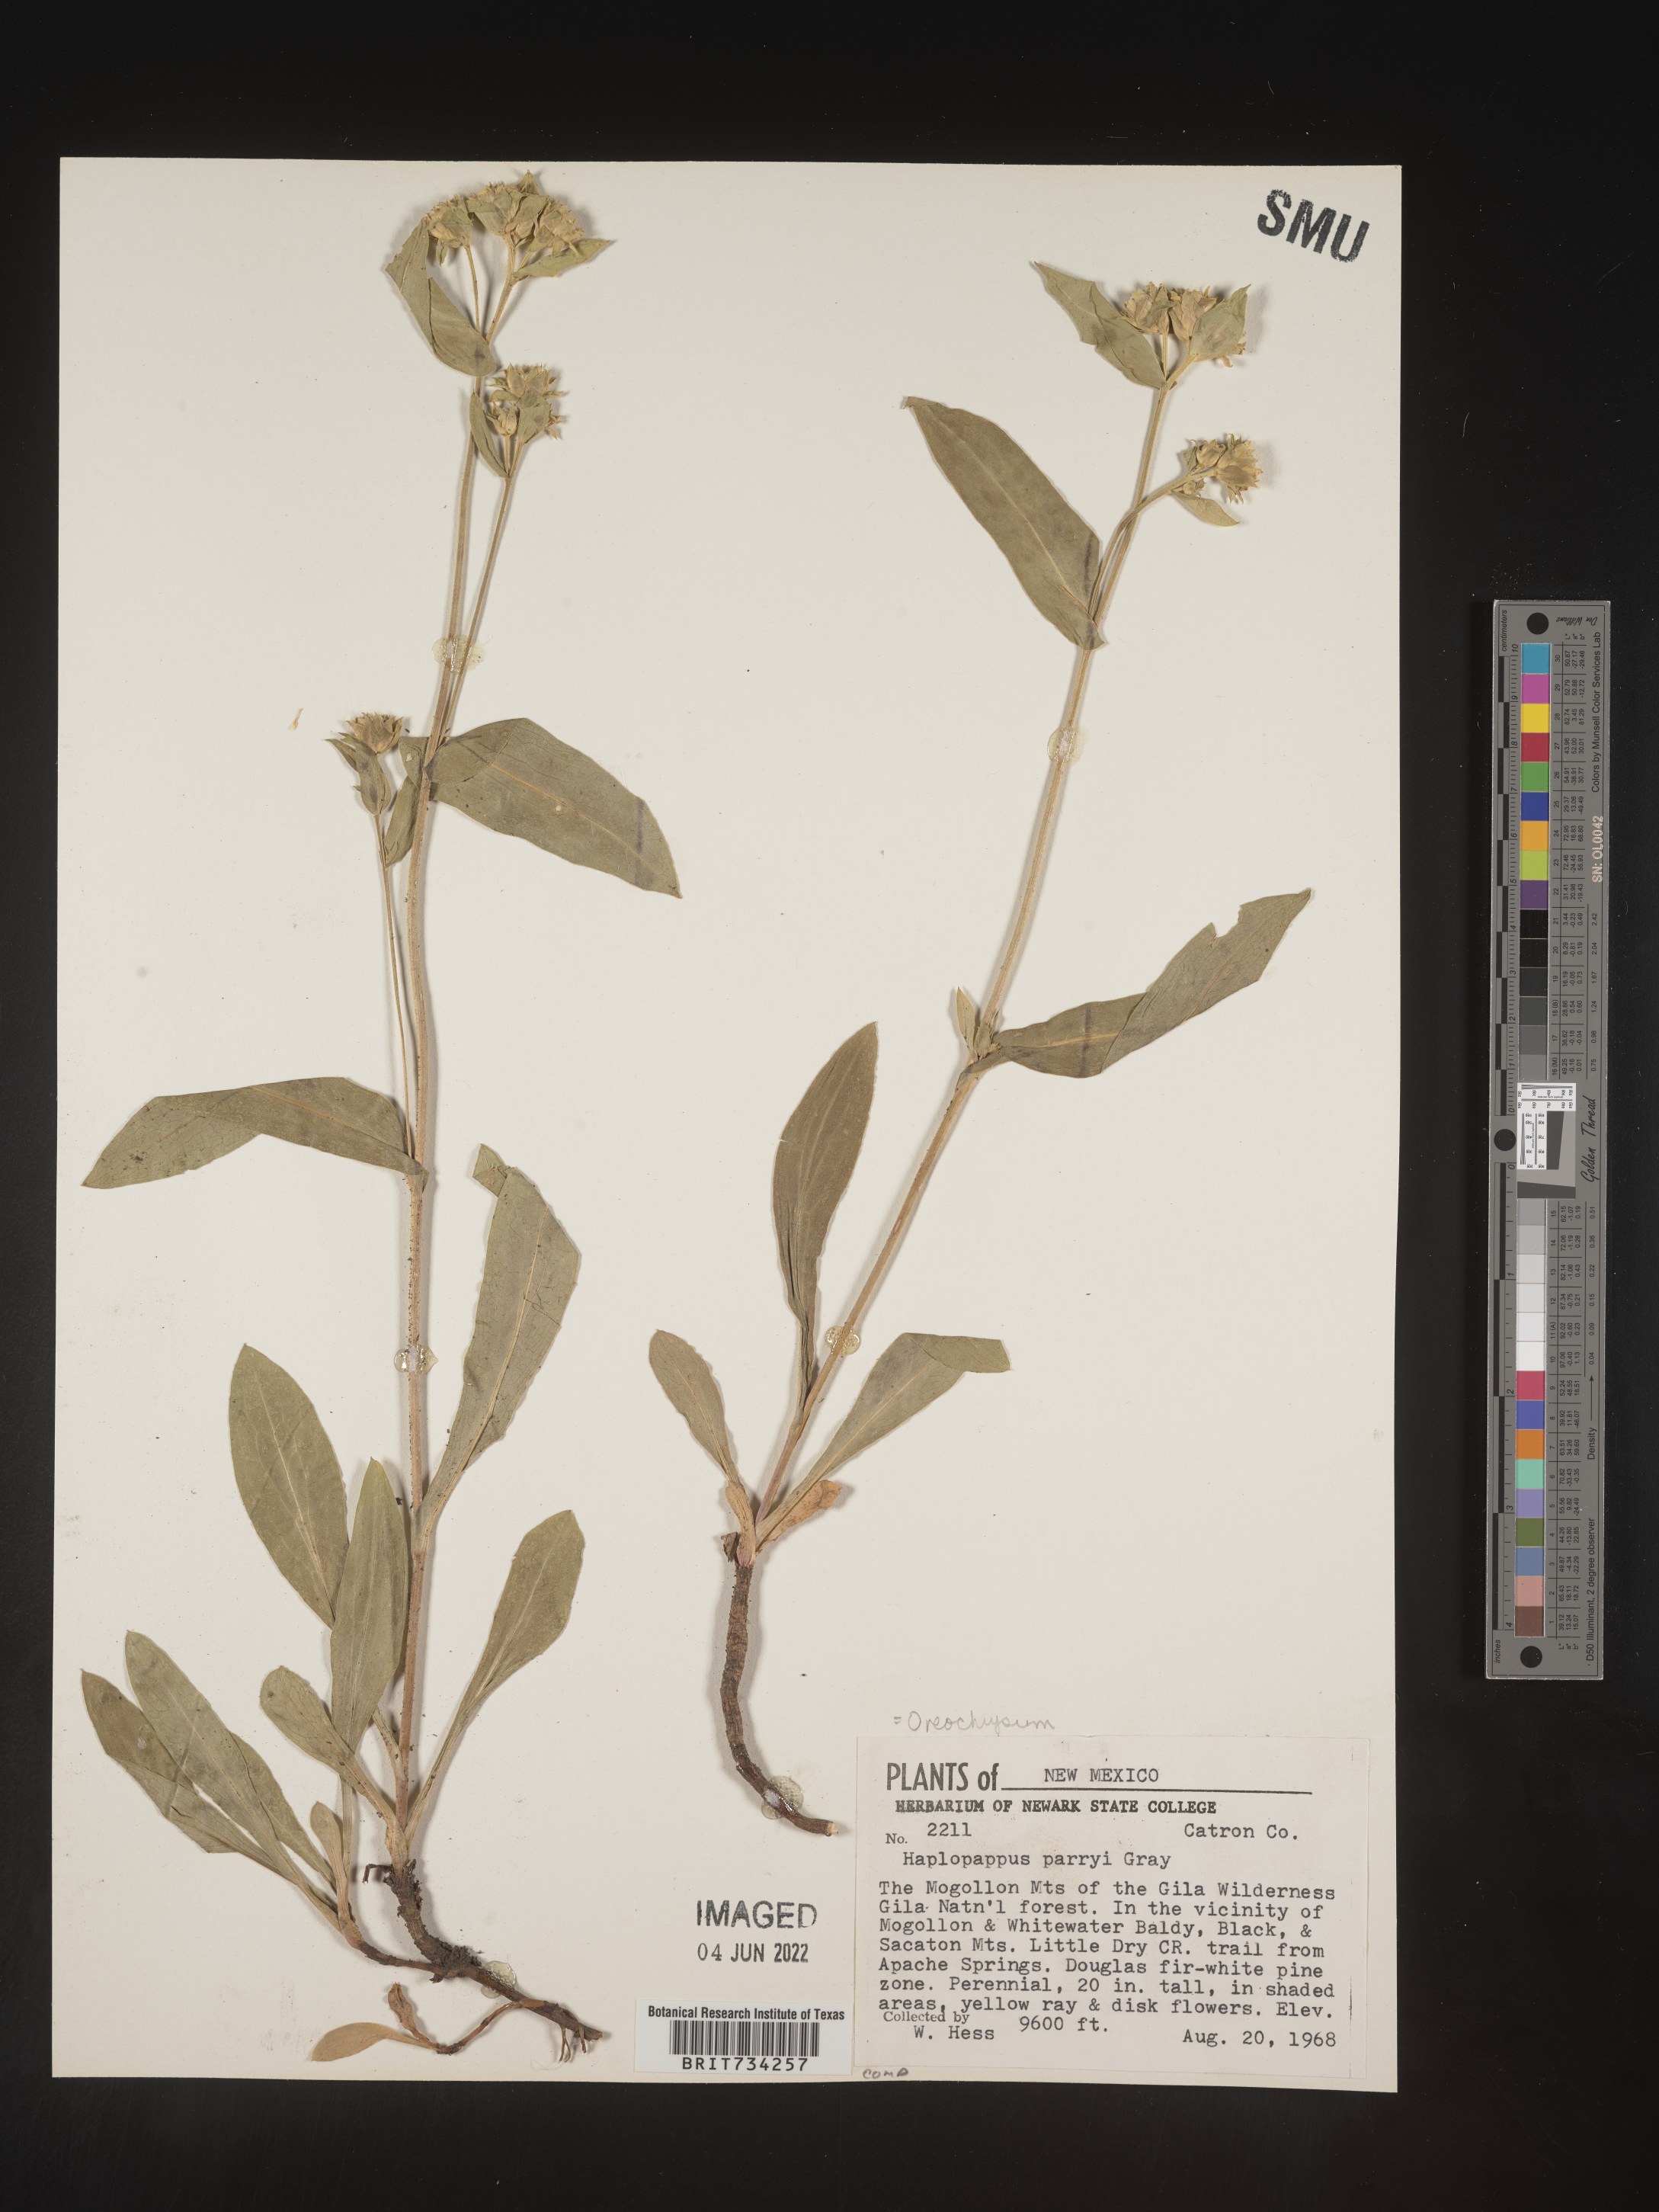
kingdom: Plantae
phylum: Tracheophyta
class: Magnoliopsida
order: Asterales
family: Asteraceae
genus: Oreochrysum
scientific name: Oreochrysum parryi
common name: Parry's goldenweed
